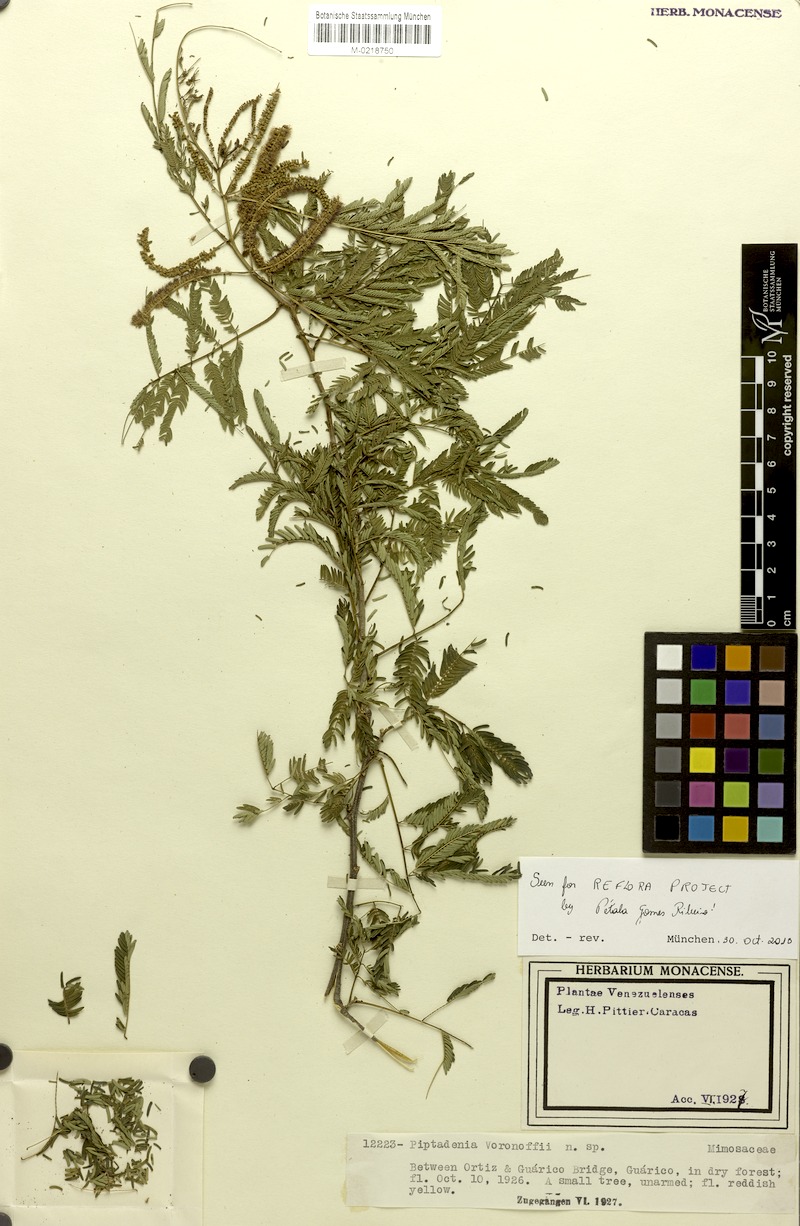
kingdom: Plantae
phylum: Tracheophyta
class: Magnoliopsida
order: Fabales
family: Fabaceae
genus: Piptadenia
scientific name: Piptadenia voronoffii
